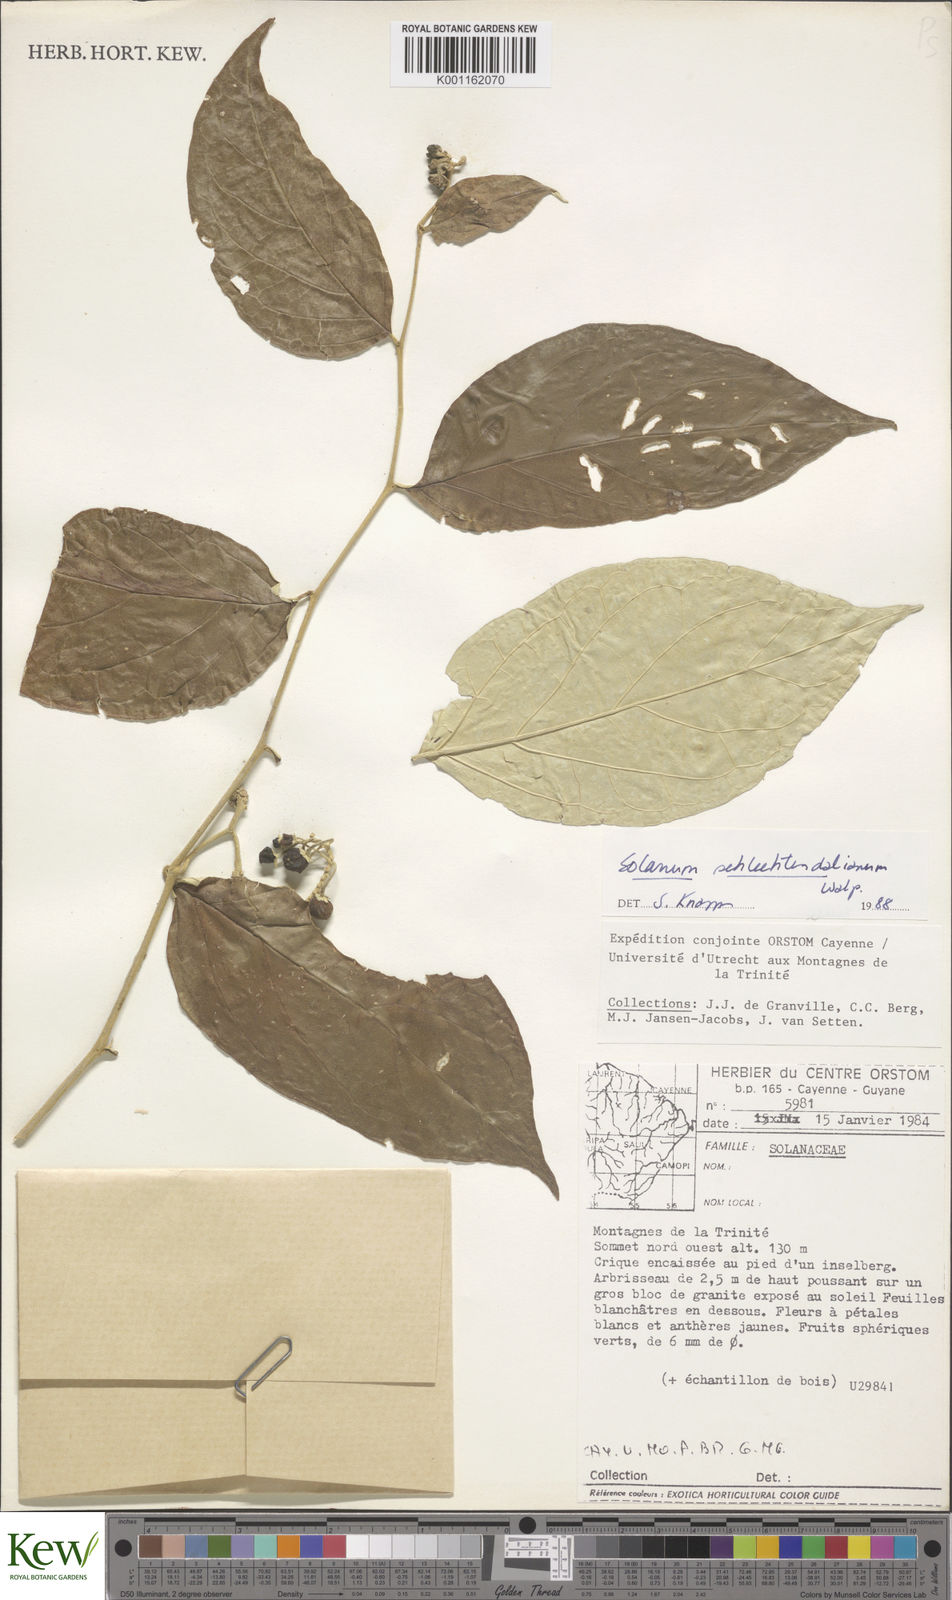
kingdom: Plantae
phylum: Tracheophyta
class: Magnoliopsida
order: Solanales
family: Solanaceae
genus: Solanum
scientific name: Solanum schlechtendalianum
